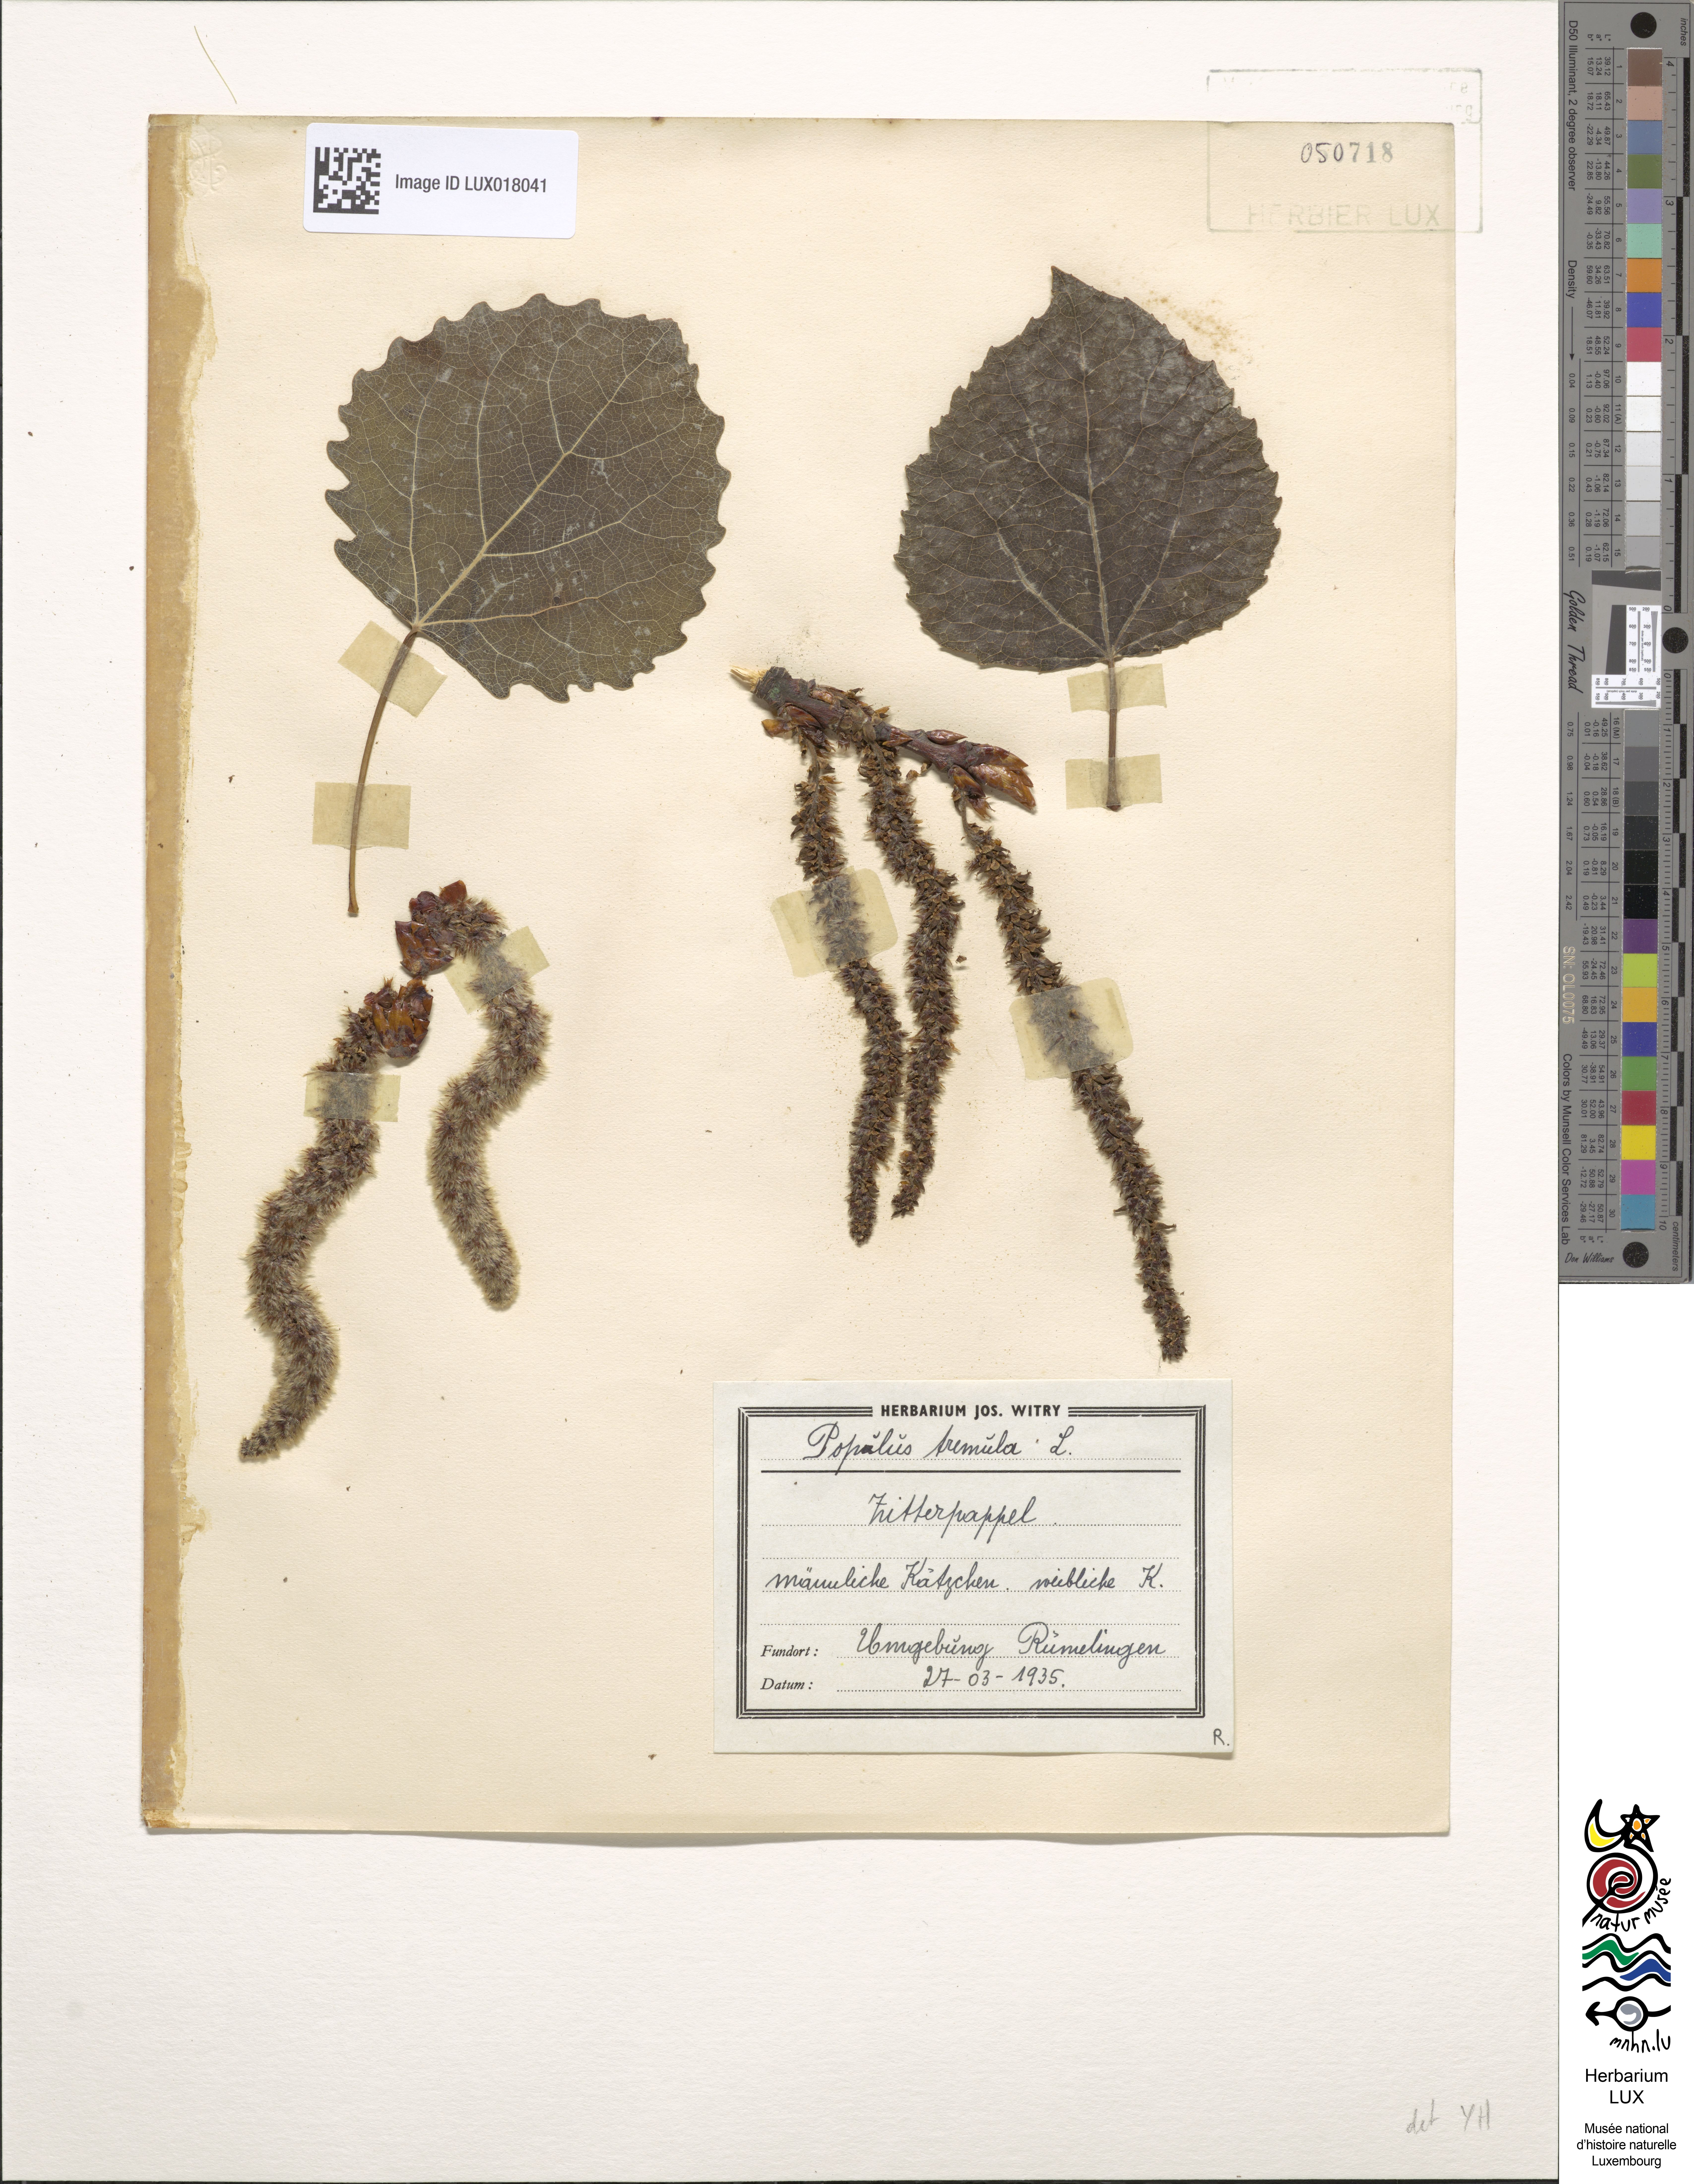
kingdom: Plantae
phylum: Tracheophyta
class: Magnoliopsida
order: Malpighiales
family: Salicaceae
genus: Populus
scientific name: Populus tremula
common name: European aspen
